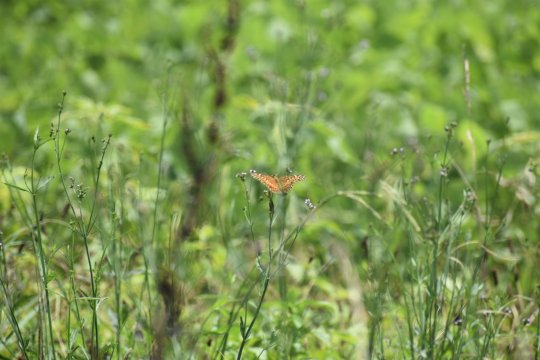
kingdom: Animalia
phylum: Arthropoda
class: Insecta
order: Lepidoptera
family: Nymphalidae
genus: Euptoieta
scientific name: Euptoieta claudia
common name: Variegated Fritillary
